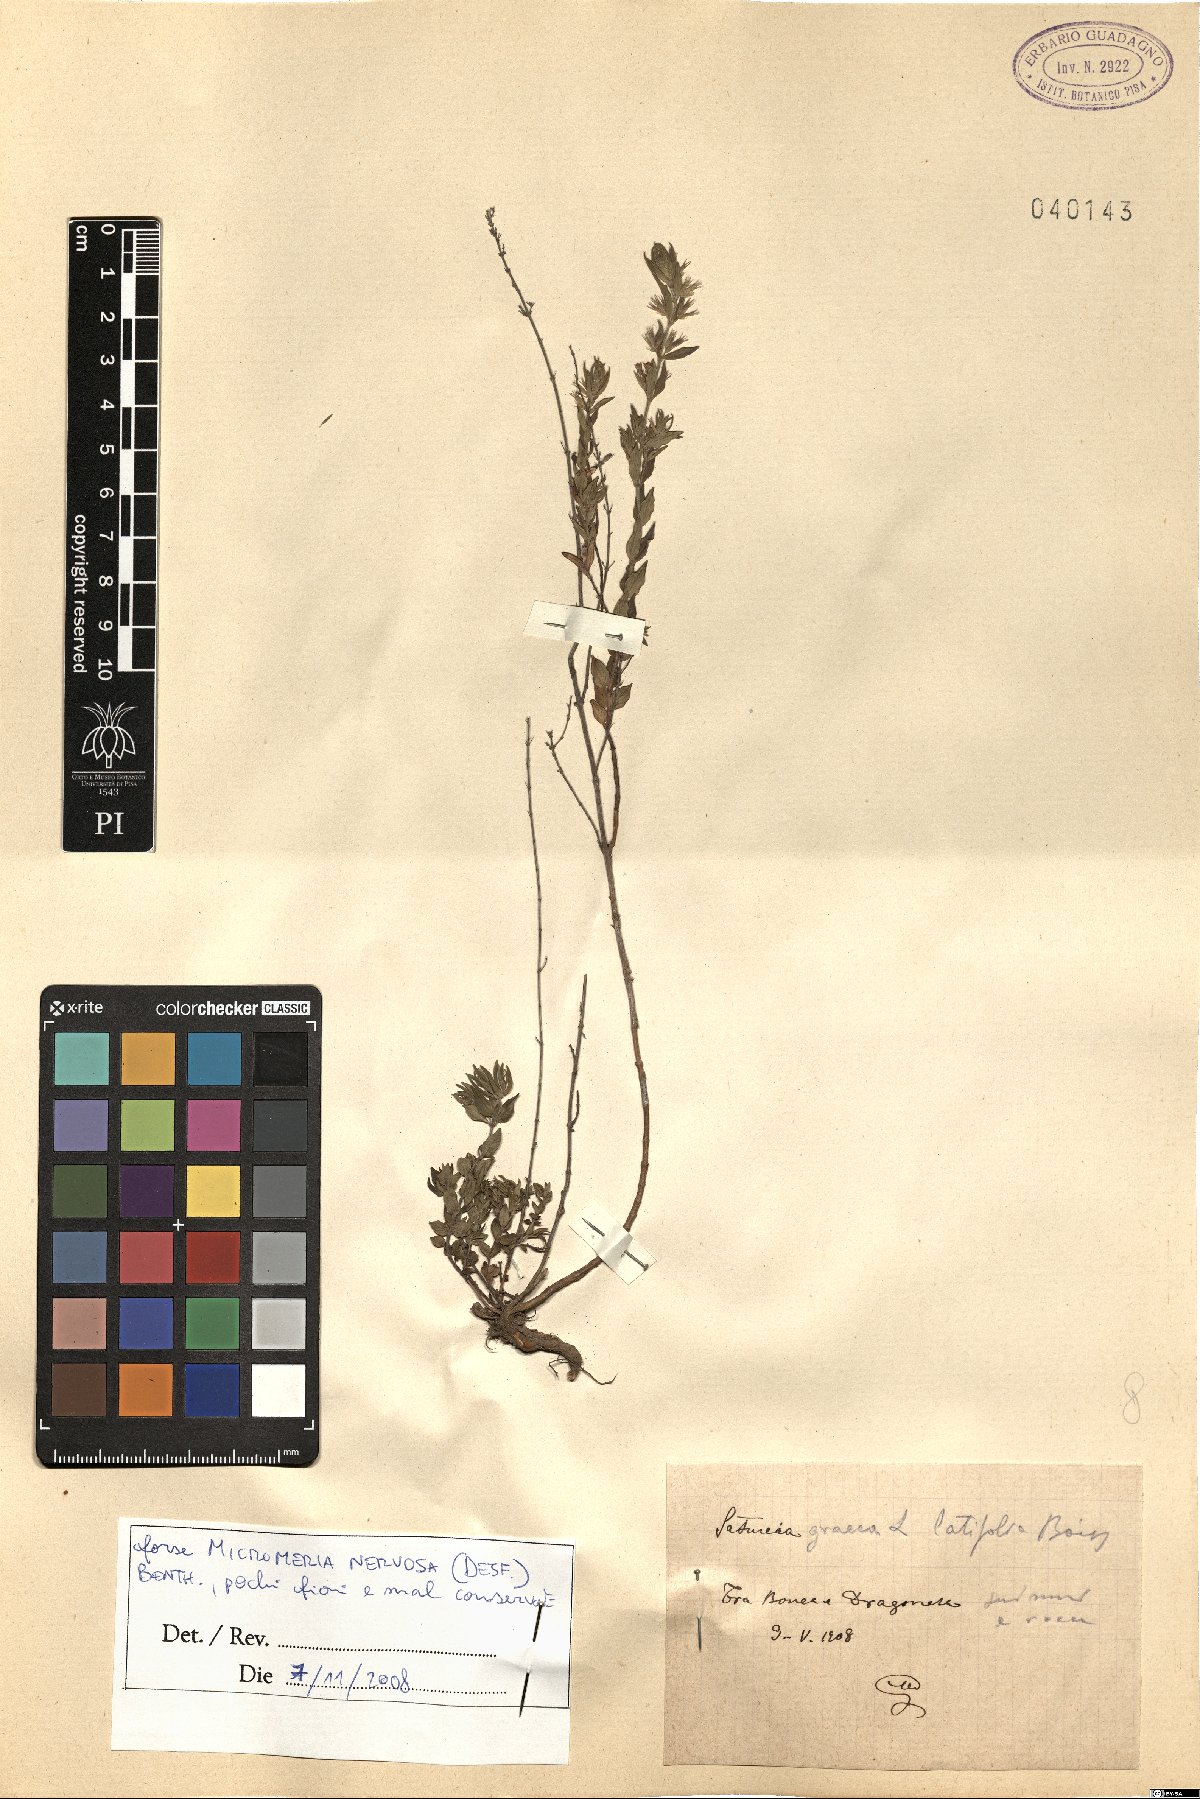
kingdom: Plantae
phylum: Tracheophyta
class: Magnoliopsida
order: Lamiales
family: Lamiaceae
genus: Micromeria
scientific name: Micromeria nervosa
